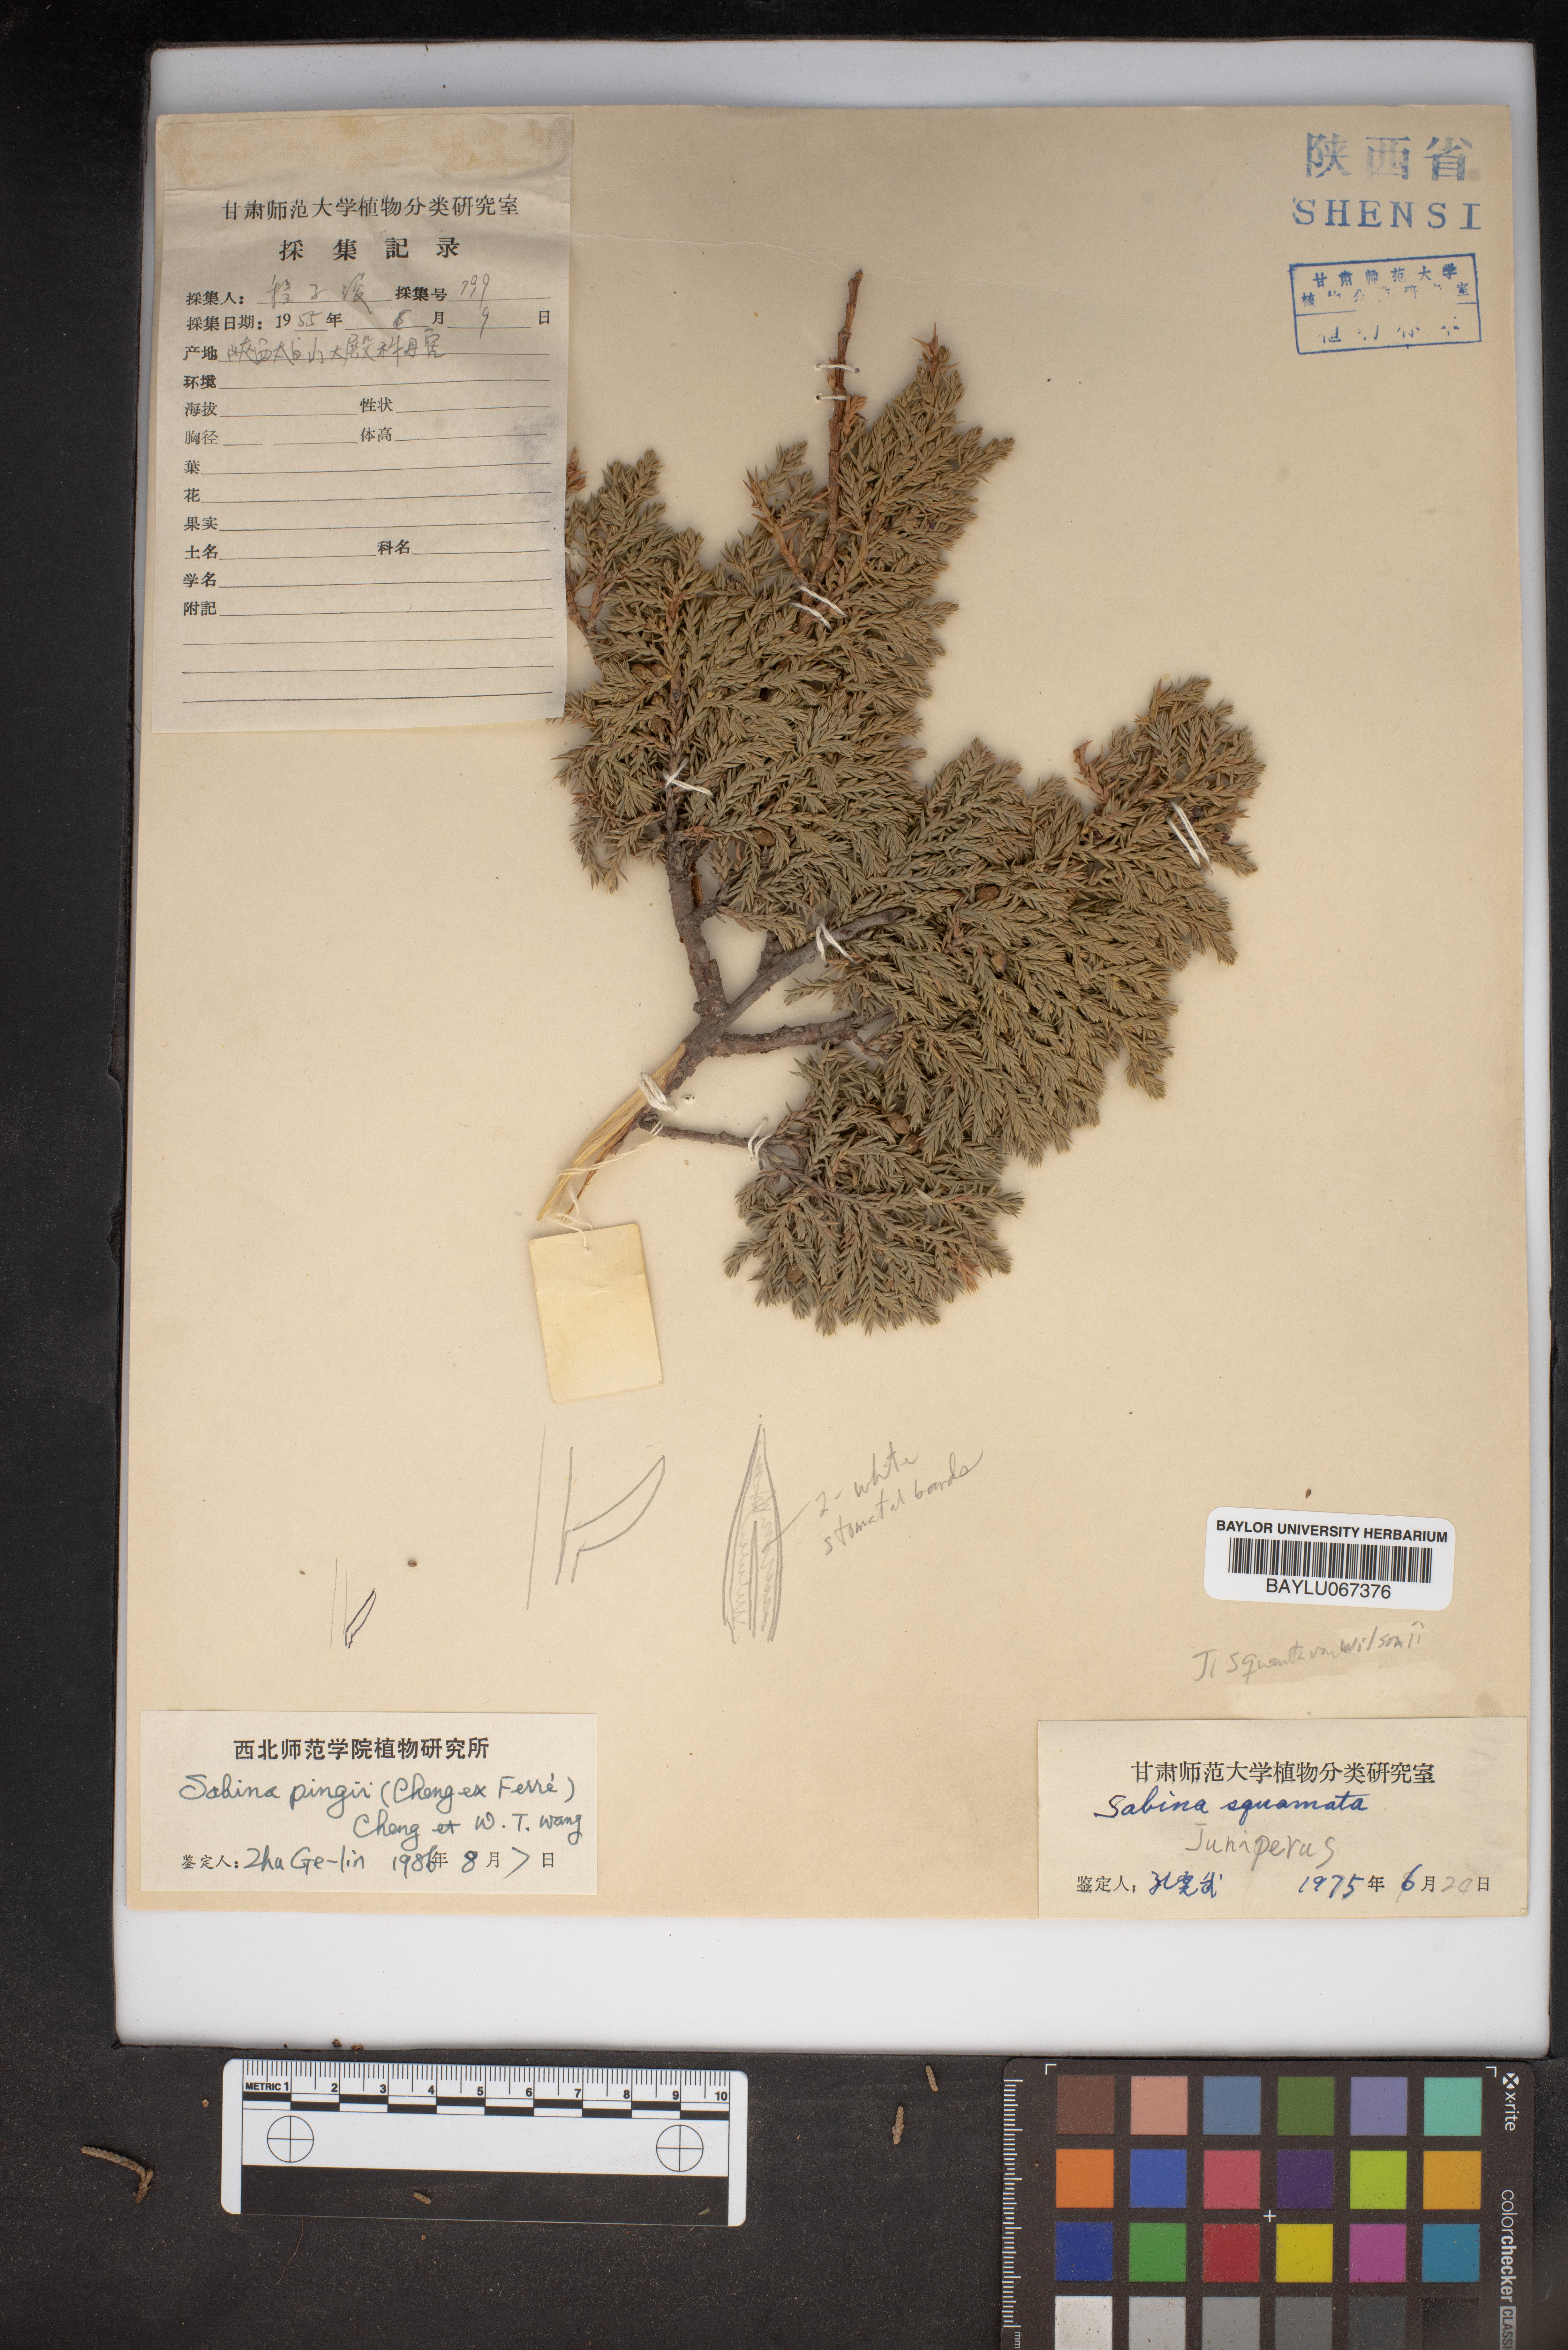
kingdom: Plantae
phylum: Tracheophyta
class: Pinopsida
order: Pinales
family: Cupressaceae
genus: Juniperus
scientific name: Juniperus pingii
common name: Ping's juniper
